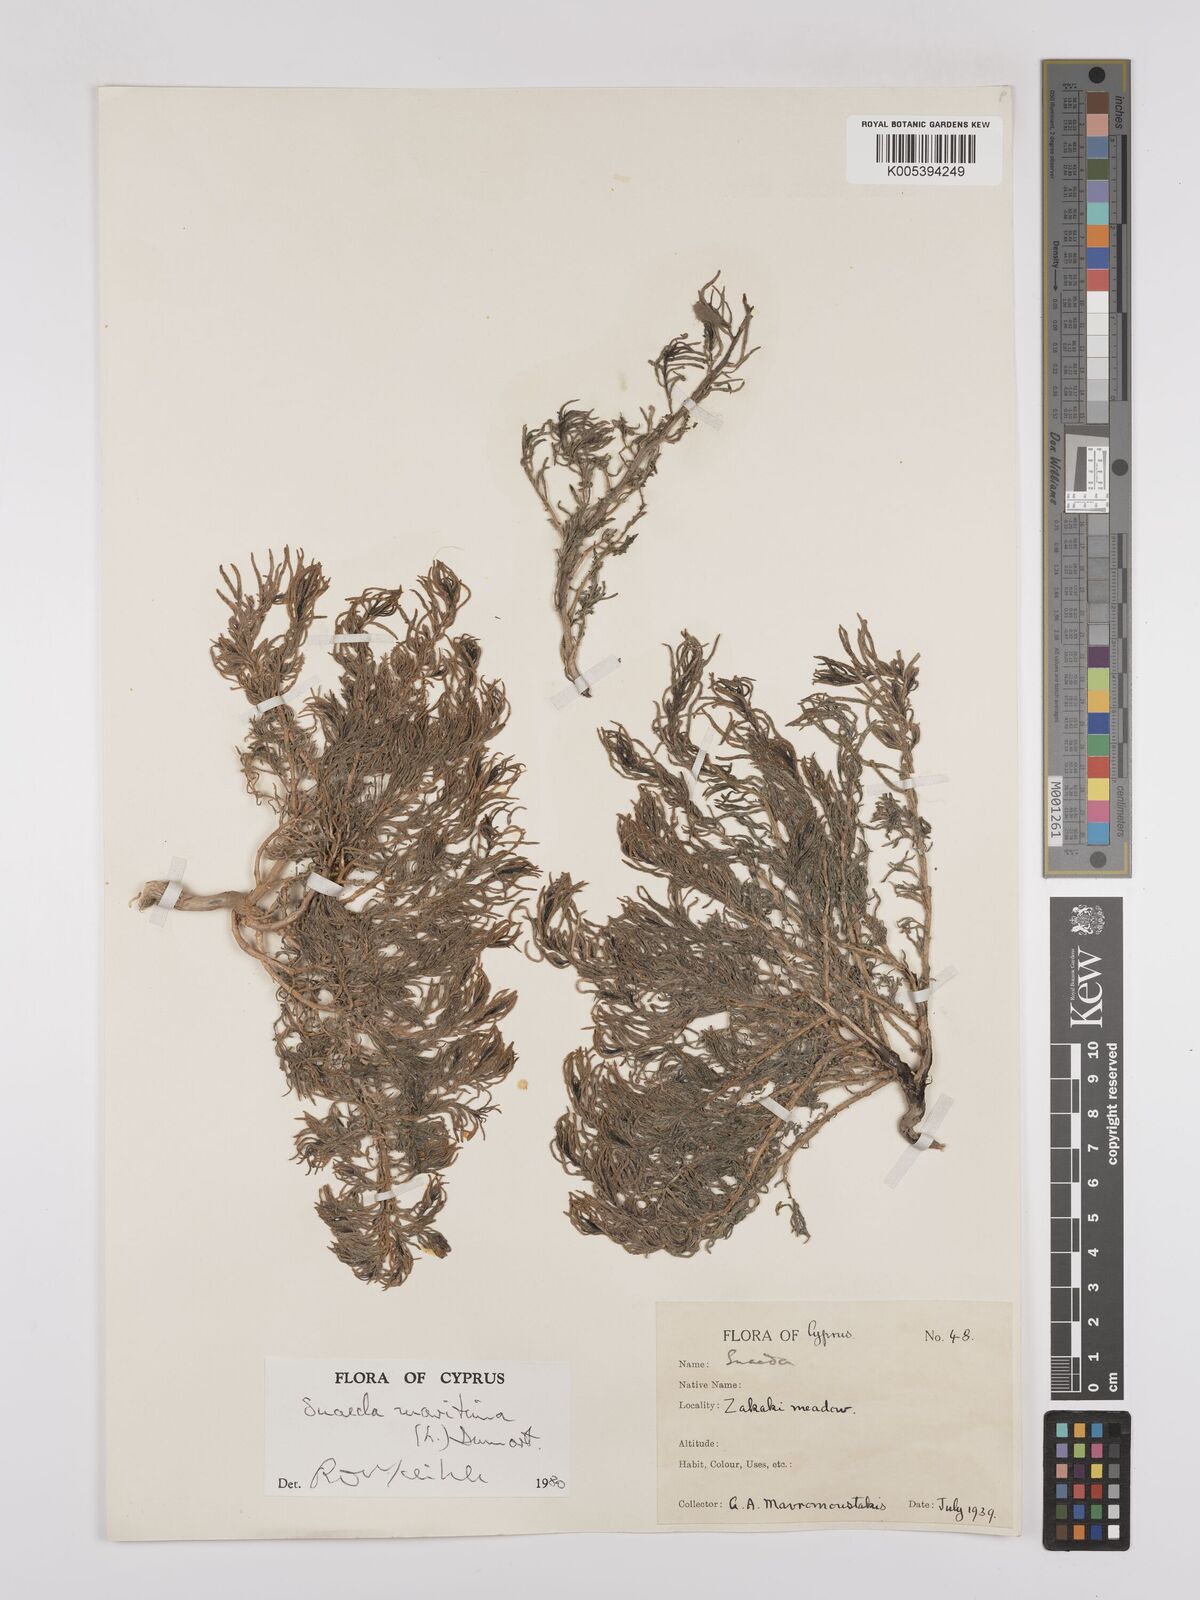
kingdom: Plantae
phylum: Tracheophyta
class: Magnoliopsida
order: Caryophyllales
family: Amaranthaceae
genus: Suaeda
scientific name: Suaeda
